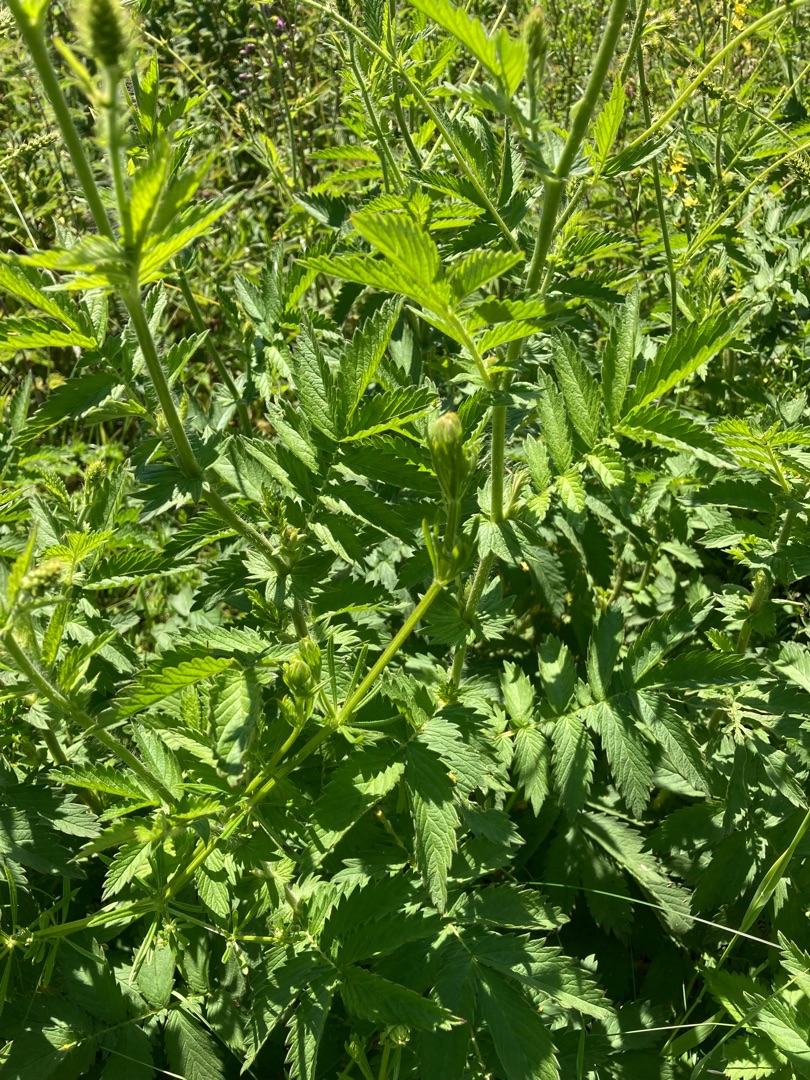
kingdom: Plantae
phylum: Tracheophyta
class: Magnoliopsida
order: Rosales
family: Rosaceae
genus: Agrimonia
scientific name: Agrimonia
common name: Agermåneslægten
